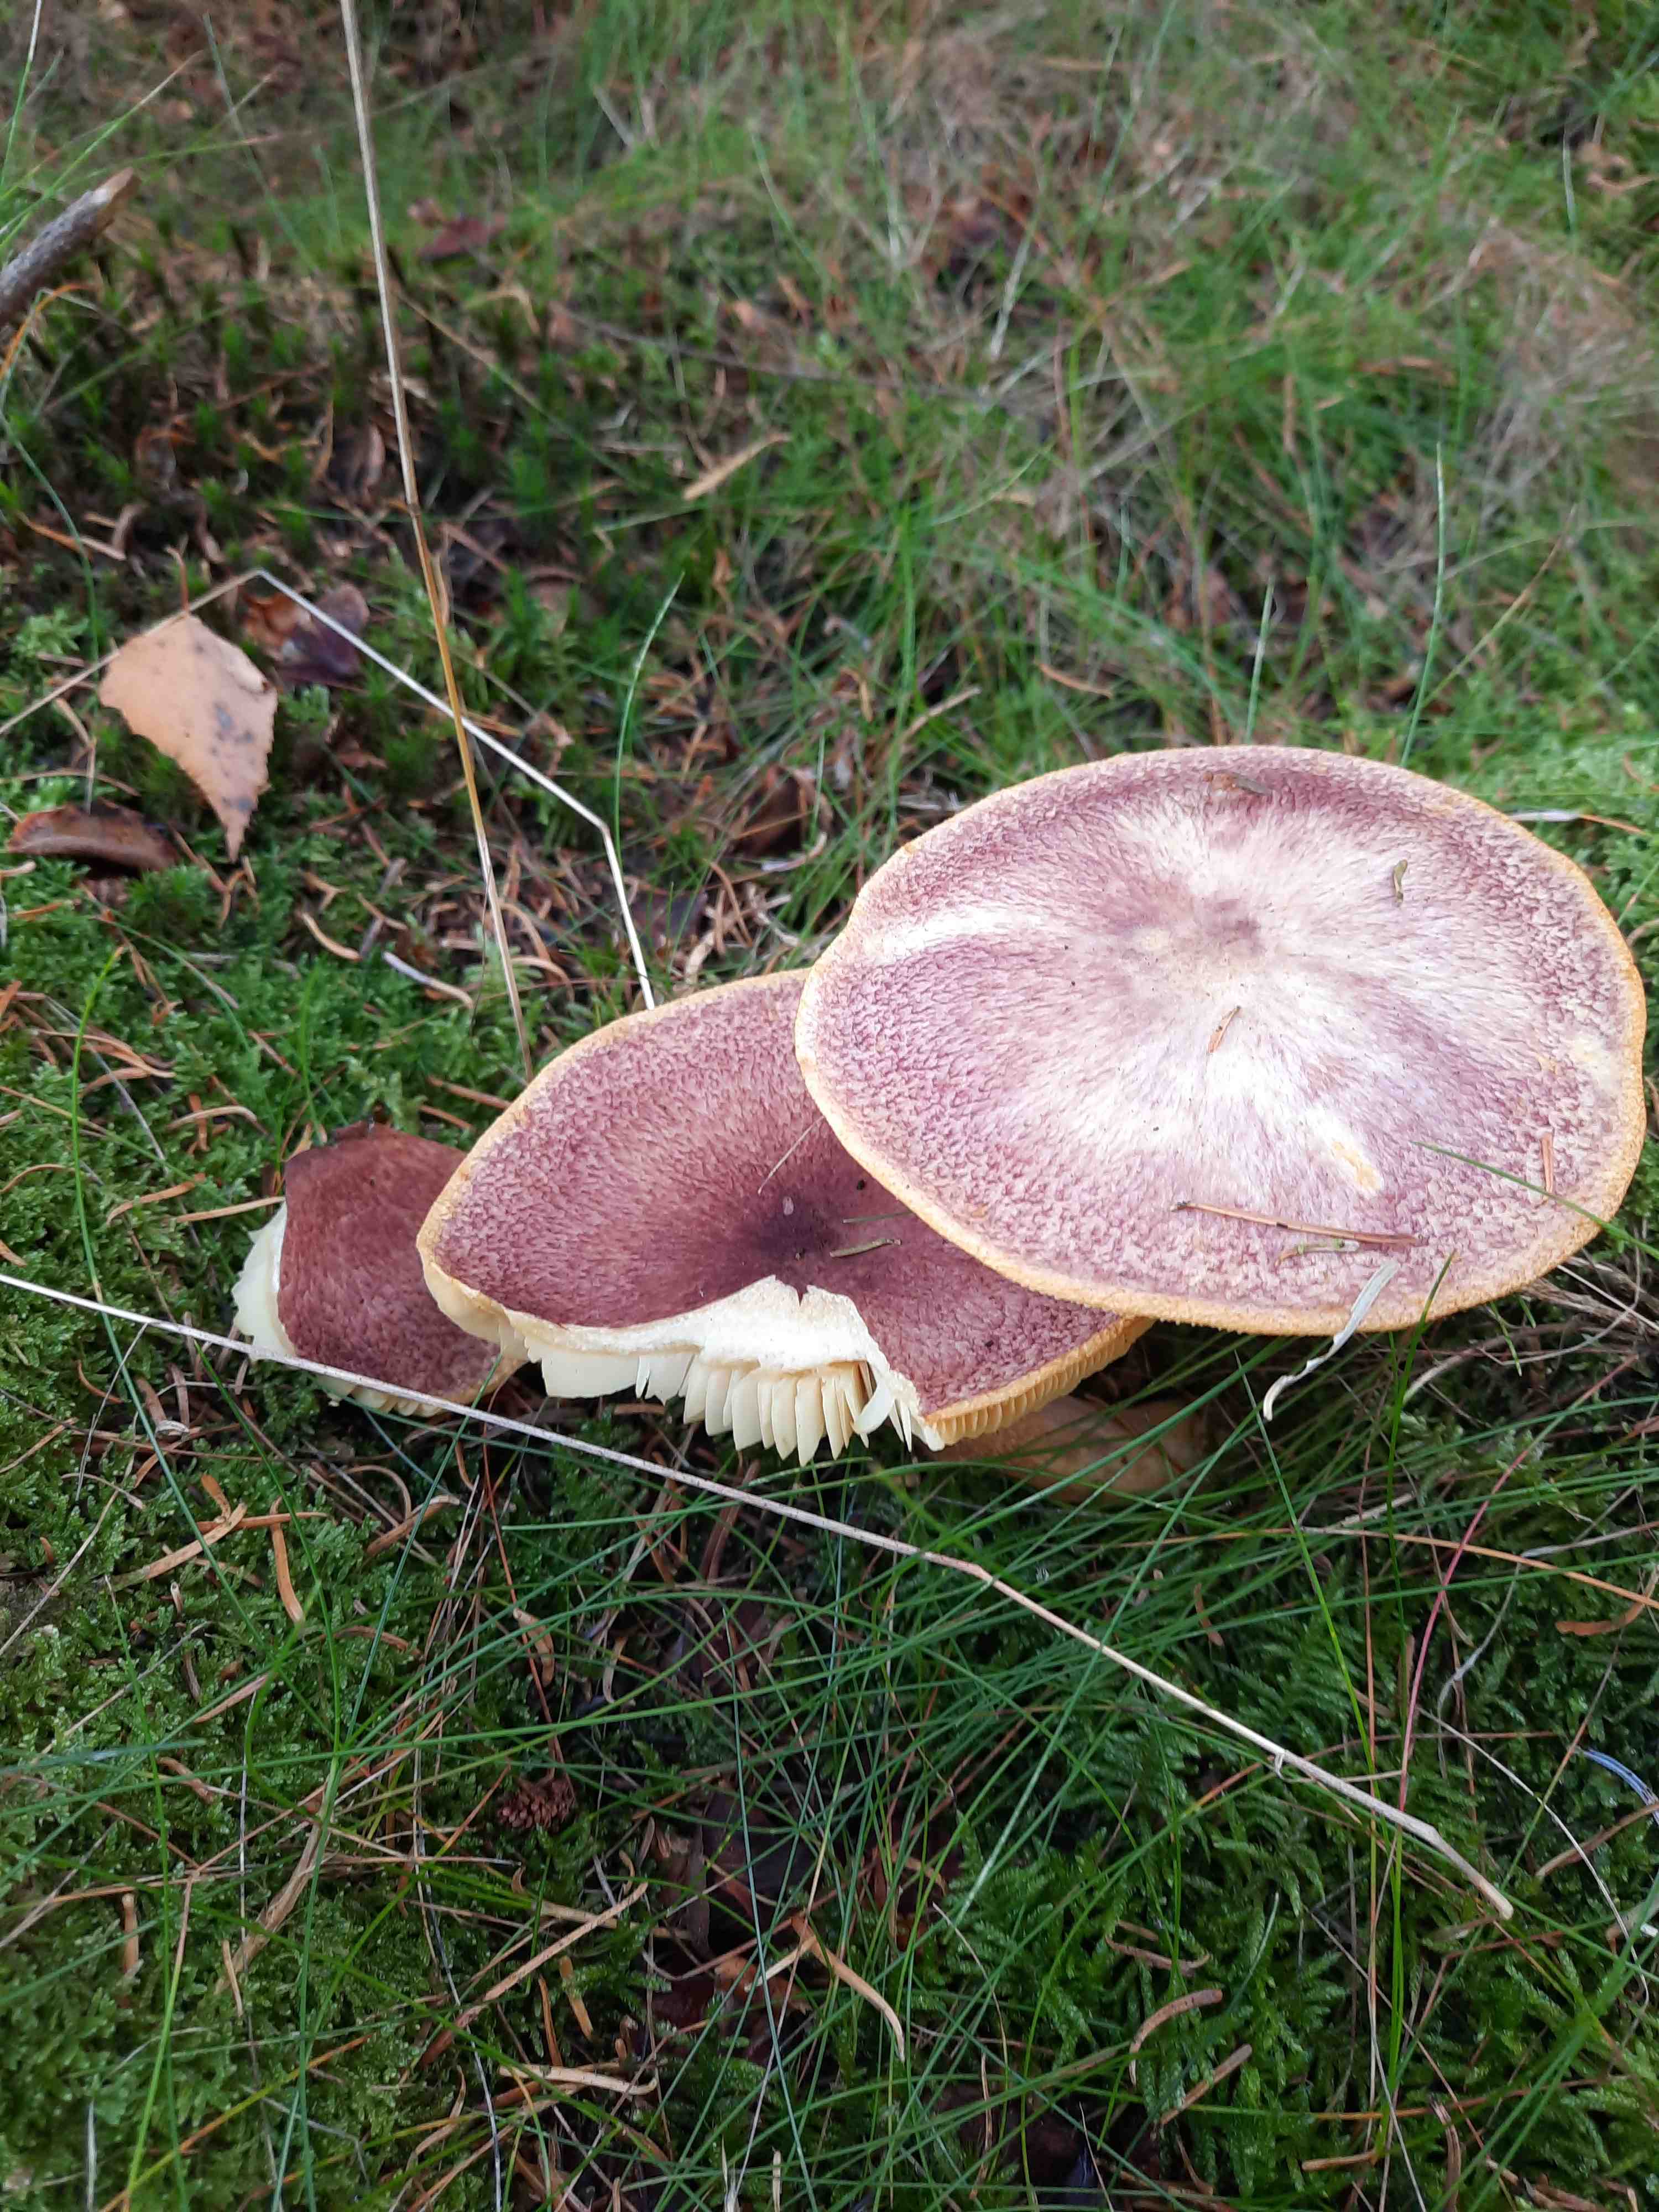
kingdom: Fungi
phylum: Basidiomycota
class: Agaricomycetes
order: Agaricales
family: Tricholomataceae
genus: Tricholomopsis
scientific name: Tricholomopsis rutilans
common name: purpur-væbnerhat
